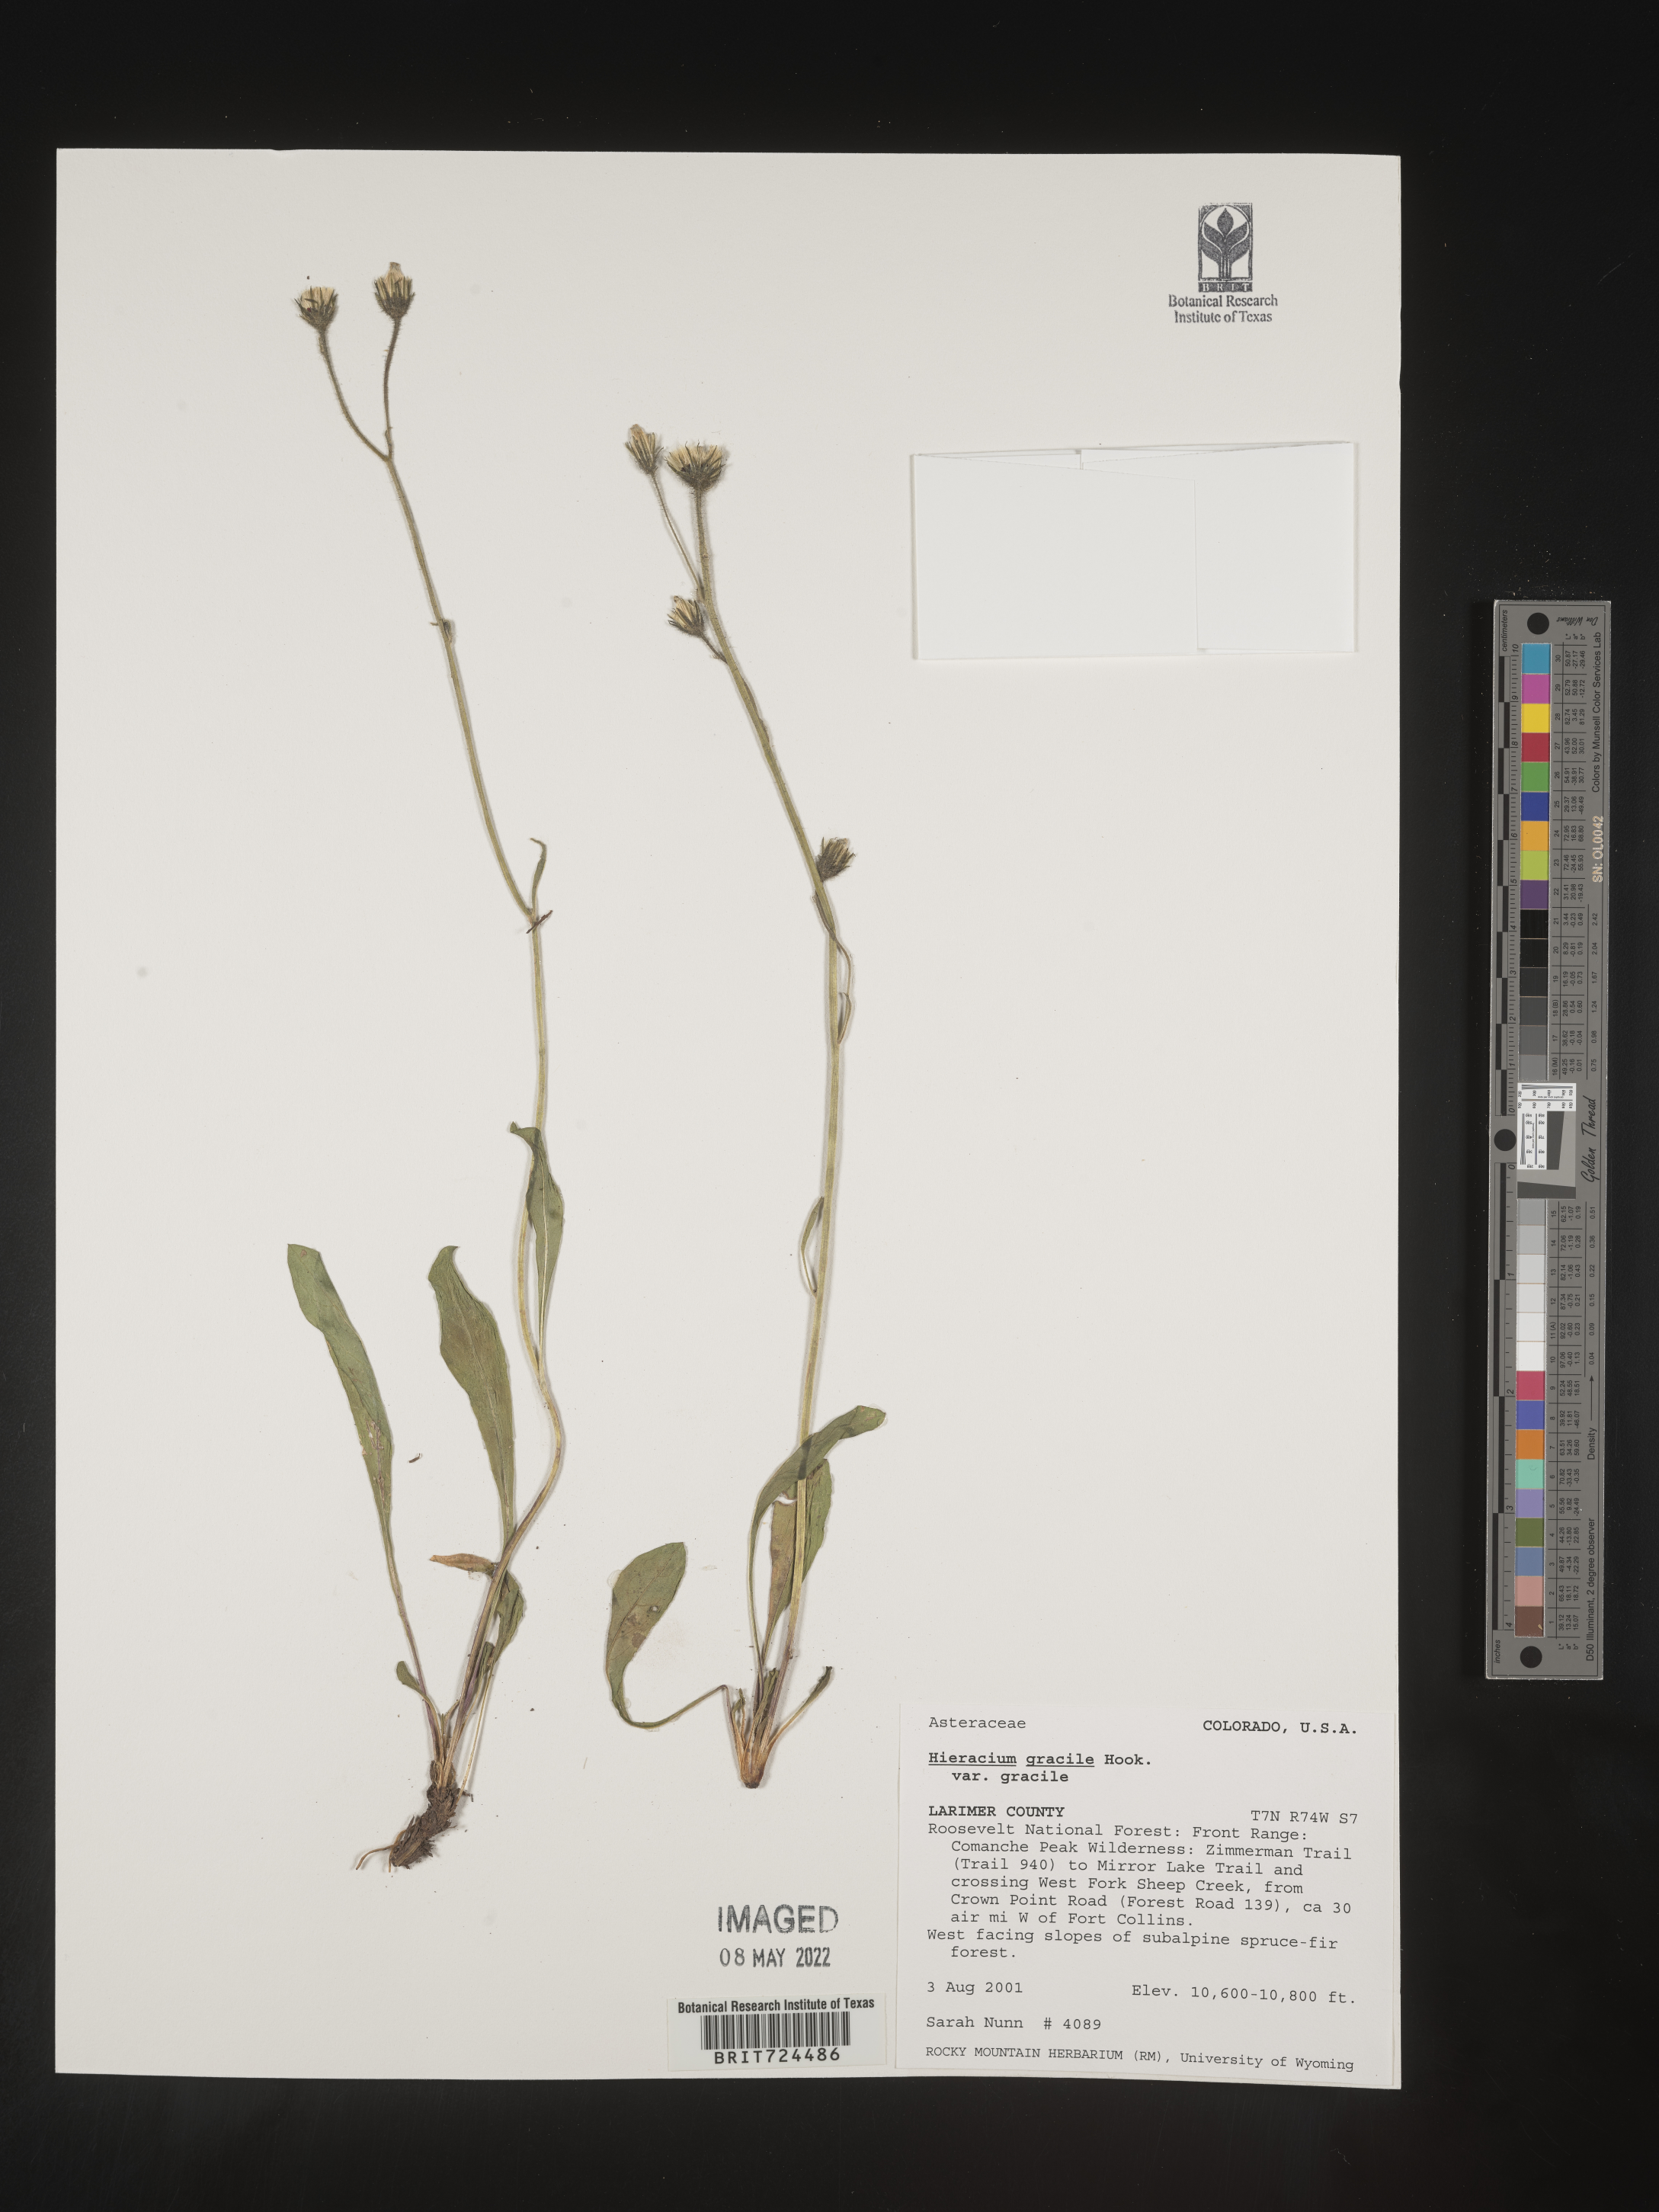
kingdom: Plantae
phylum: Tracheophyta
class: Magnoliopsida
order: Asterales
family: Asteraceae
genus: Hieracium
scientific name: Hieracium
